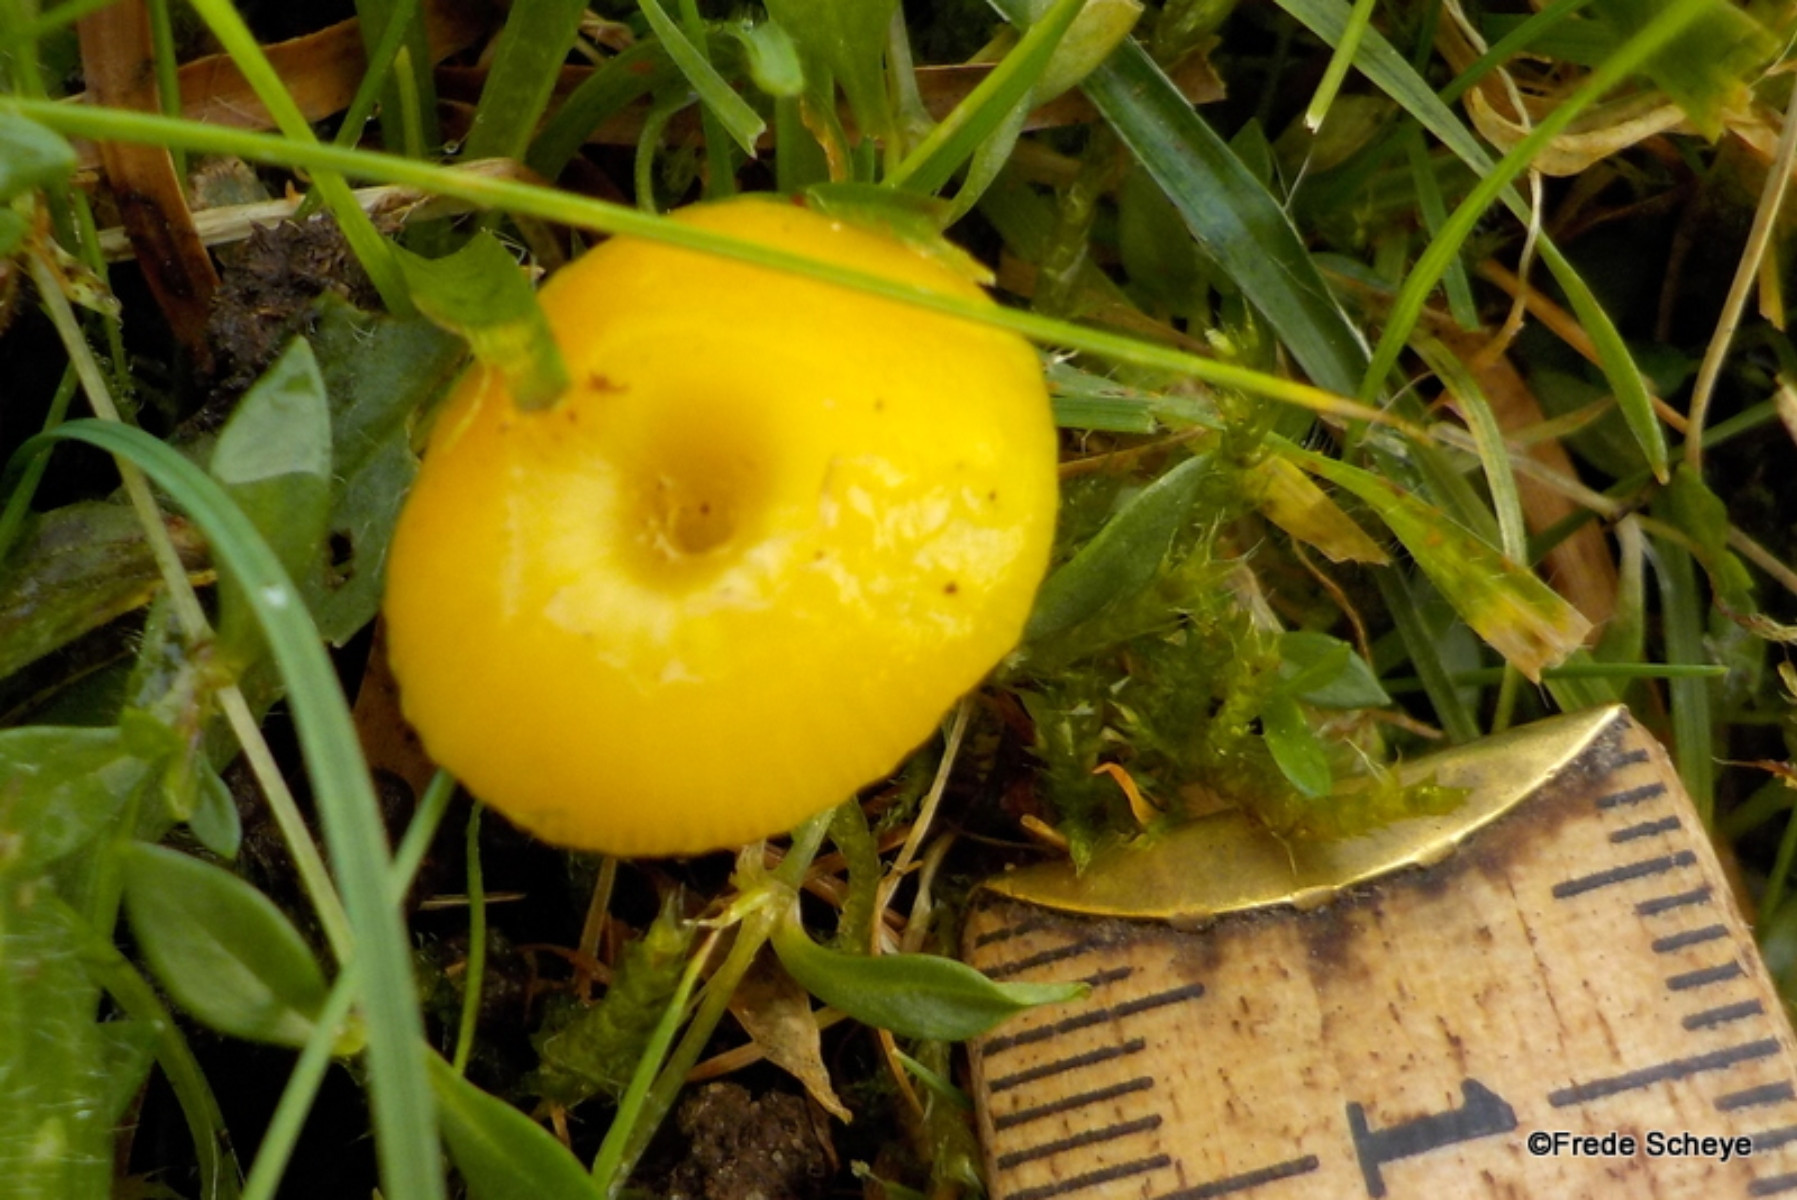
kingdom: Fungi
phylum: Basidiomycota
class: Agaricomycetes
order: Agaricales
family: Hygrophoraceae
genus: Hygrocybe
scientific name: Hygrocybe ceracea
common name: voksgul vokshat
